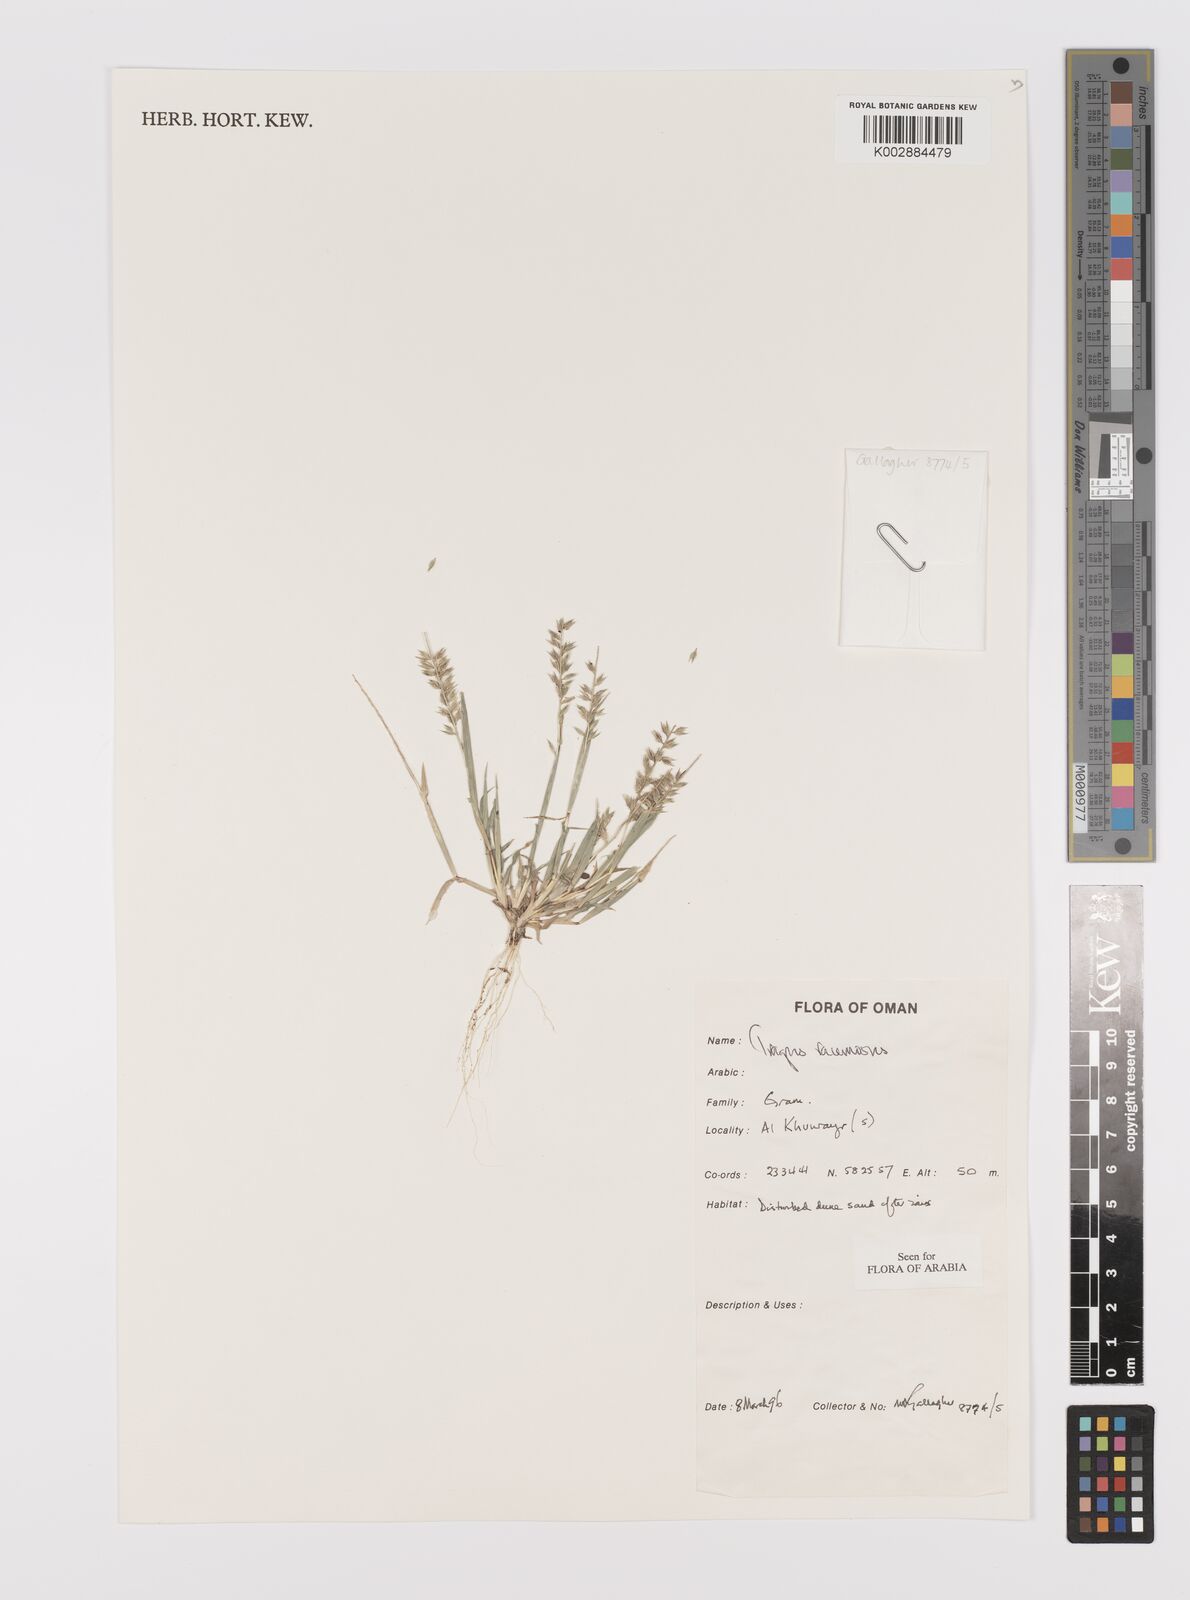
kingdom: Plantae
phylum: Tracheophyta
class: Liliopsida
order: Poales
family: Poaceae
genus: Tragus
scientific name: Tragus racemosus
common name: European bur-grass
